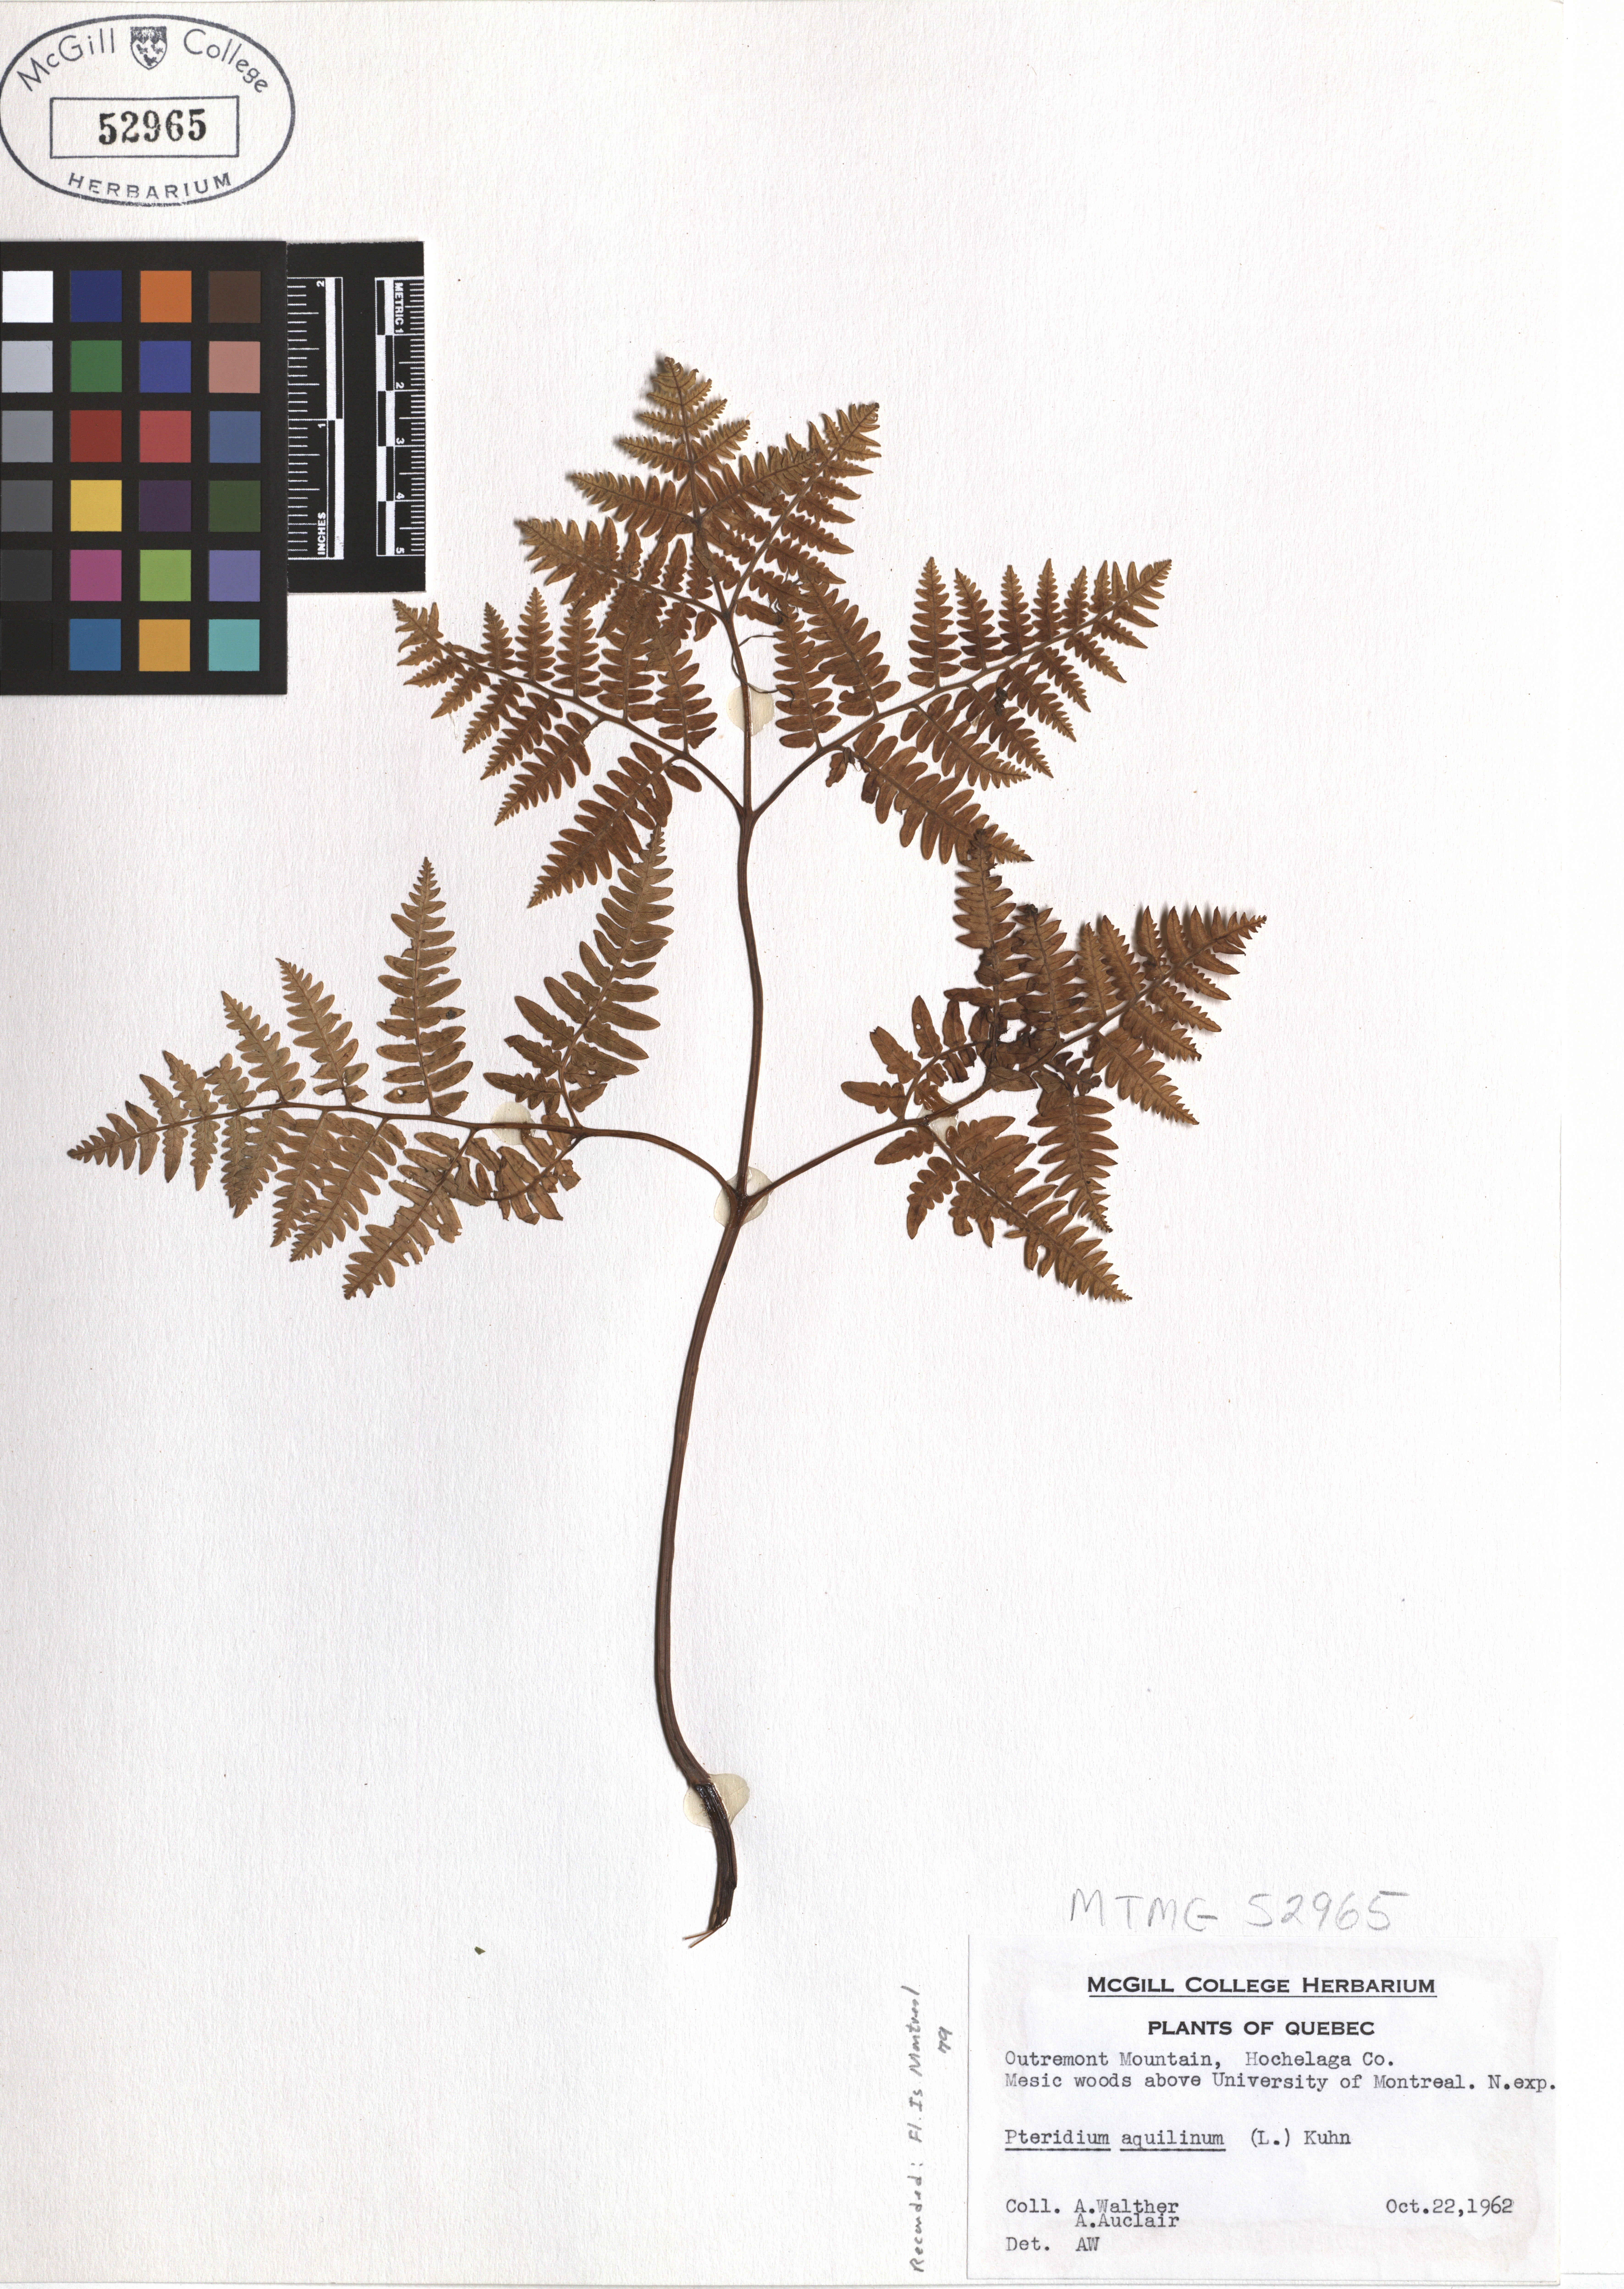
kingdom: Plantae
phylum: Tracheophyta
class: Polypodiopsida
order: Polypodiales
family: Dennstaedtiaceae
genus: Pteridium
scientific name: Pteridium aquilinum
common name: Bracken
